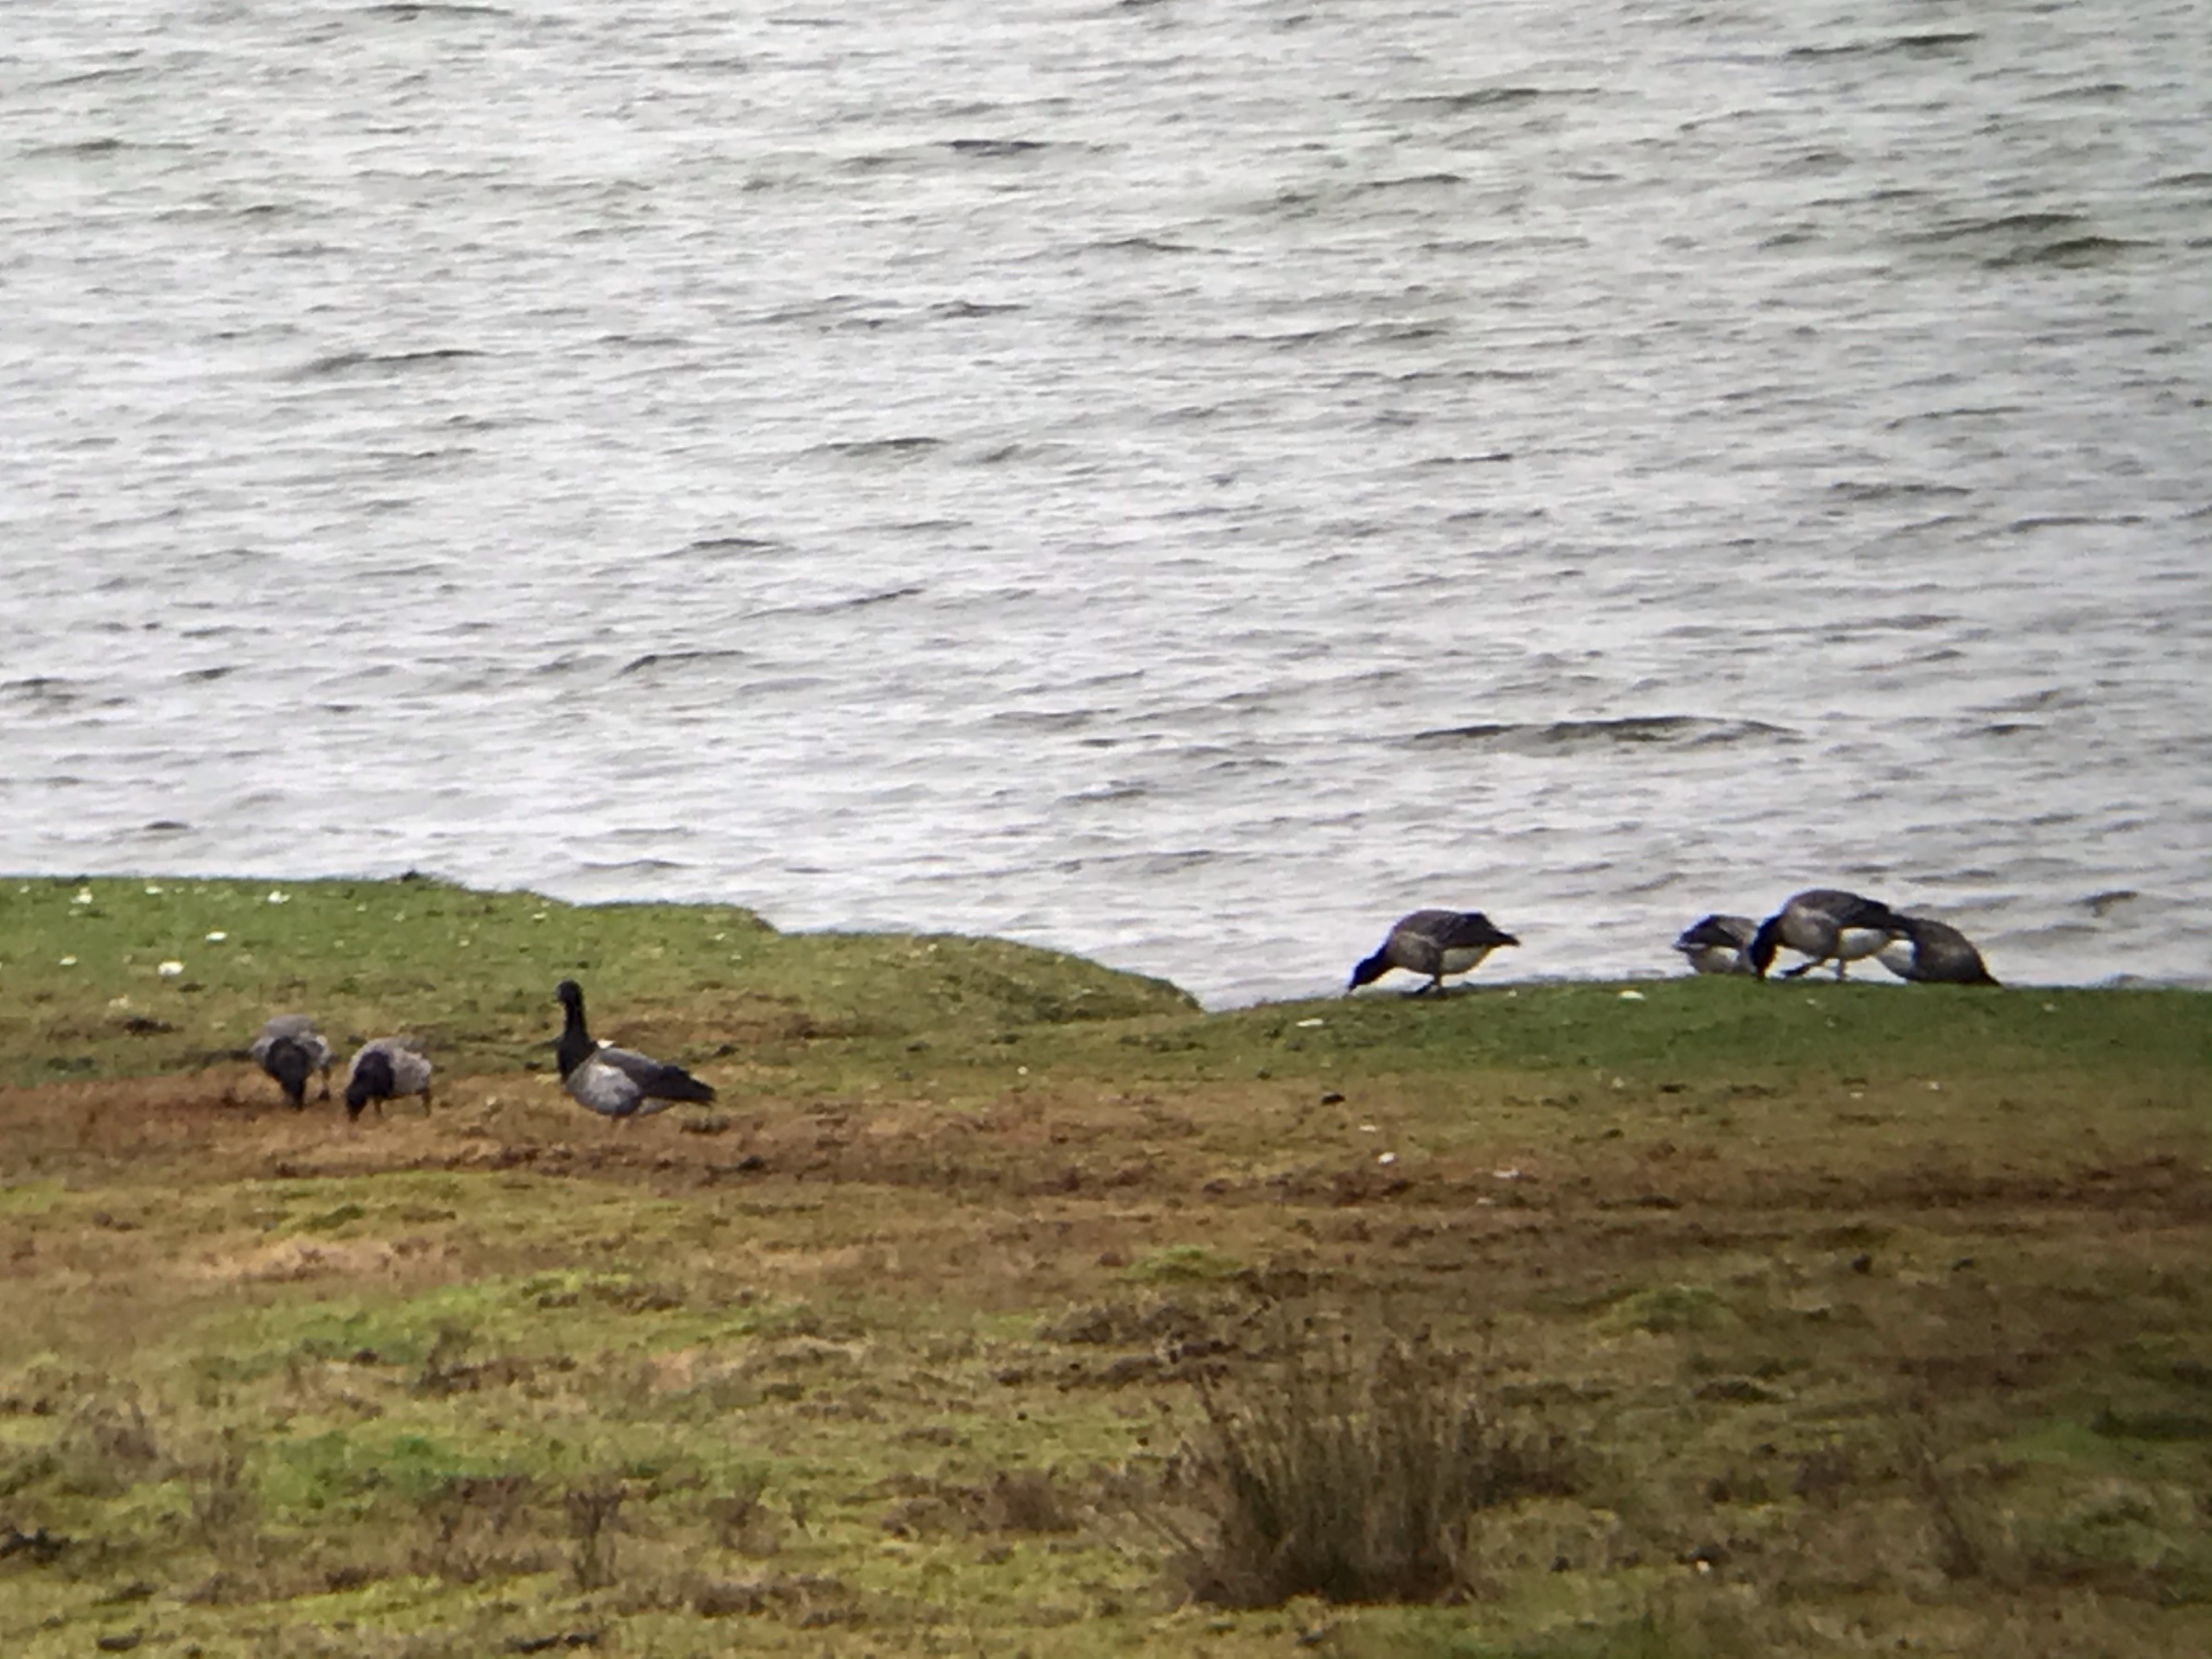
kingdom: Animalia
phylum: Chordata
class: Aves
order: Anseriformes
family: Anatidae
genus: Branta
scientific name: Branta bernicla
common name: Lysbuget knortegås
